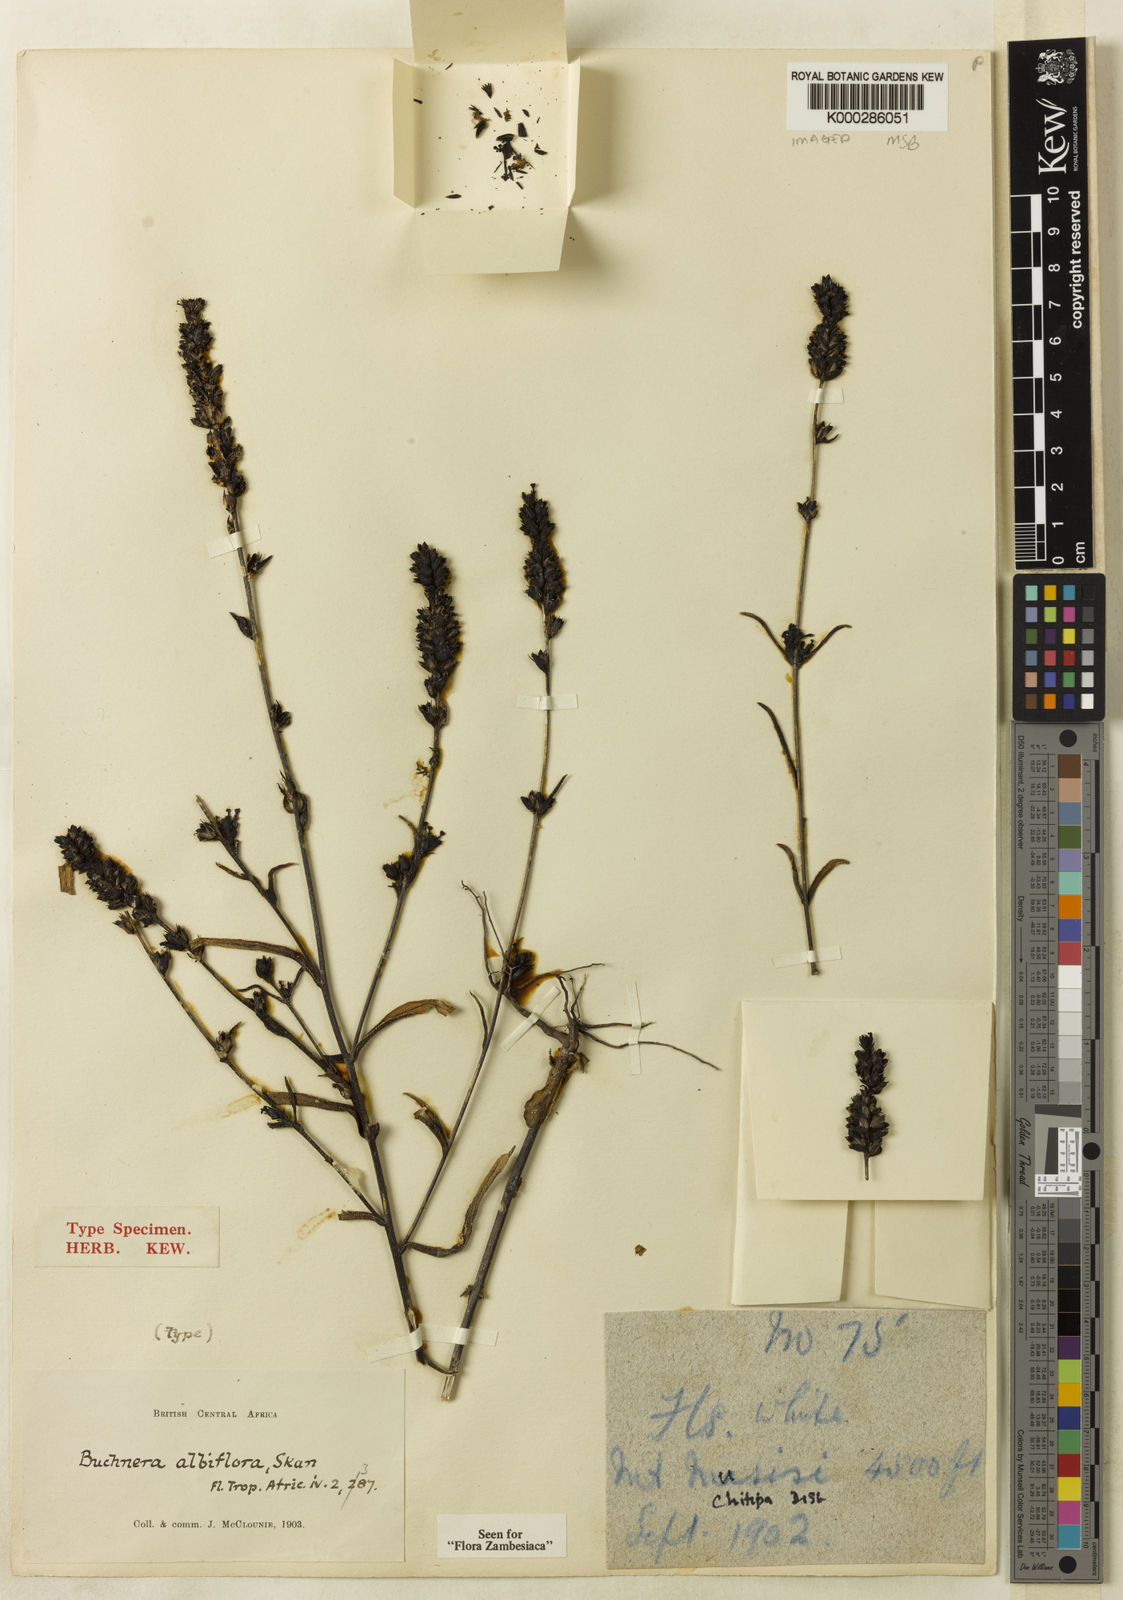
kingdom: Plantae
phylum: Tracheophyta
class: Magnoliopsida
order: Lamiales
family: Orobanchaceae
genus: Buchnera
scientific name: Buchnera albiflora
